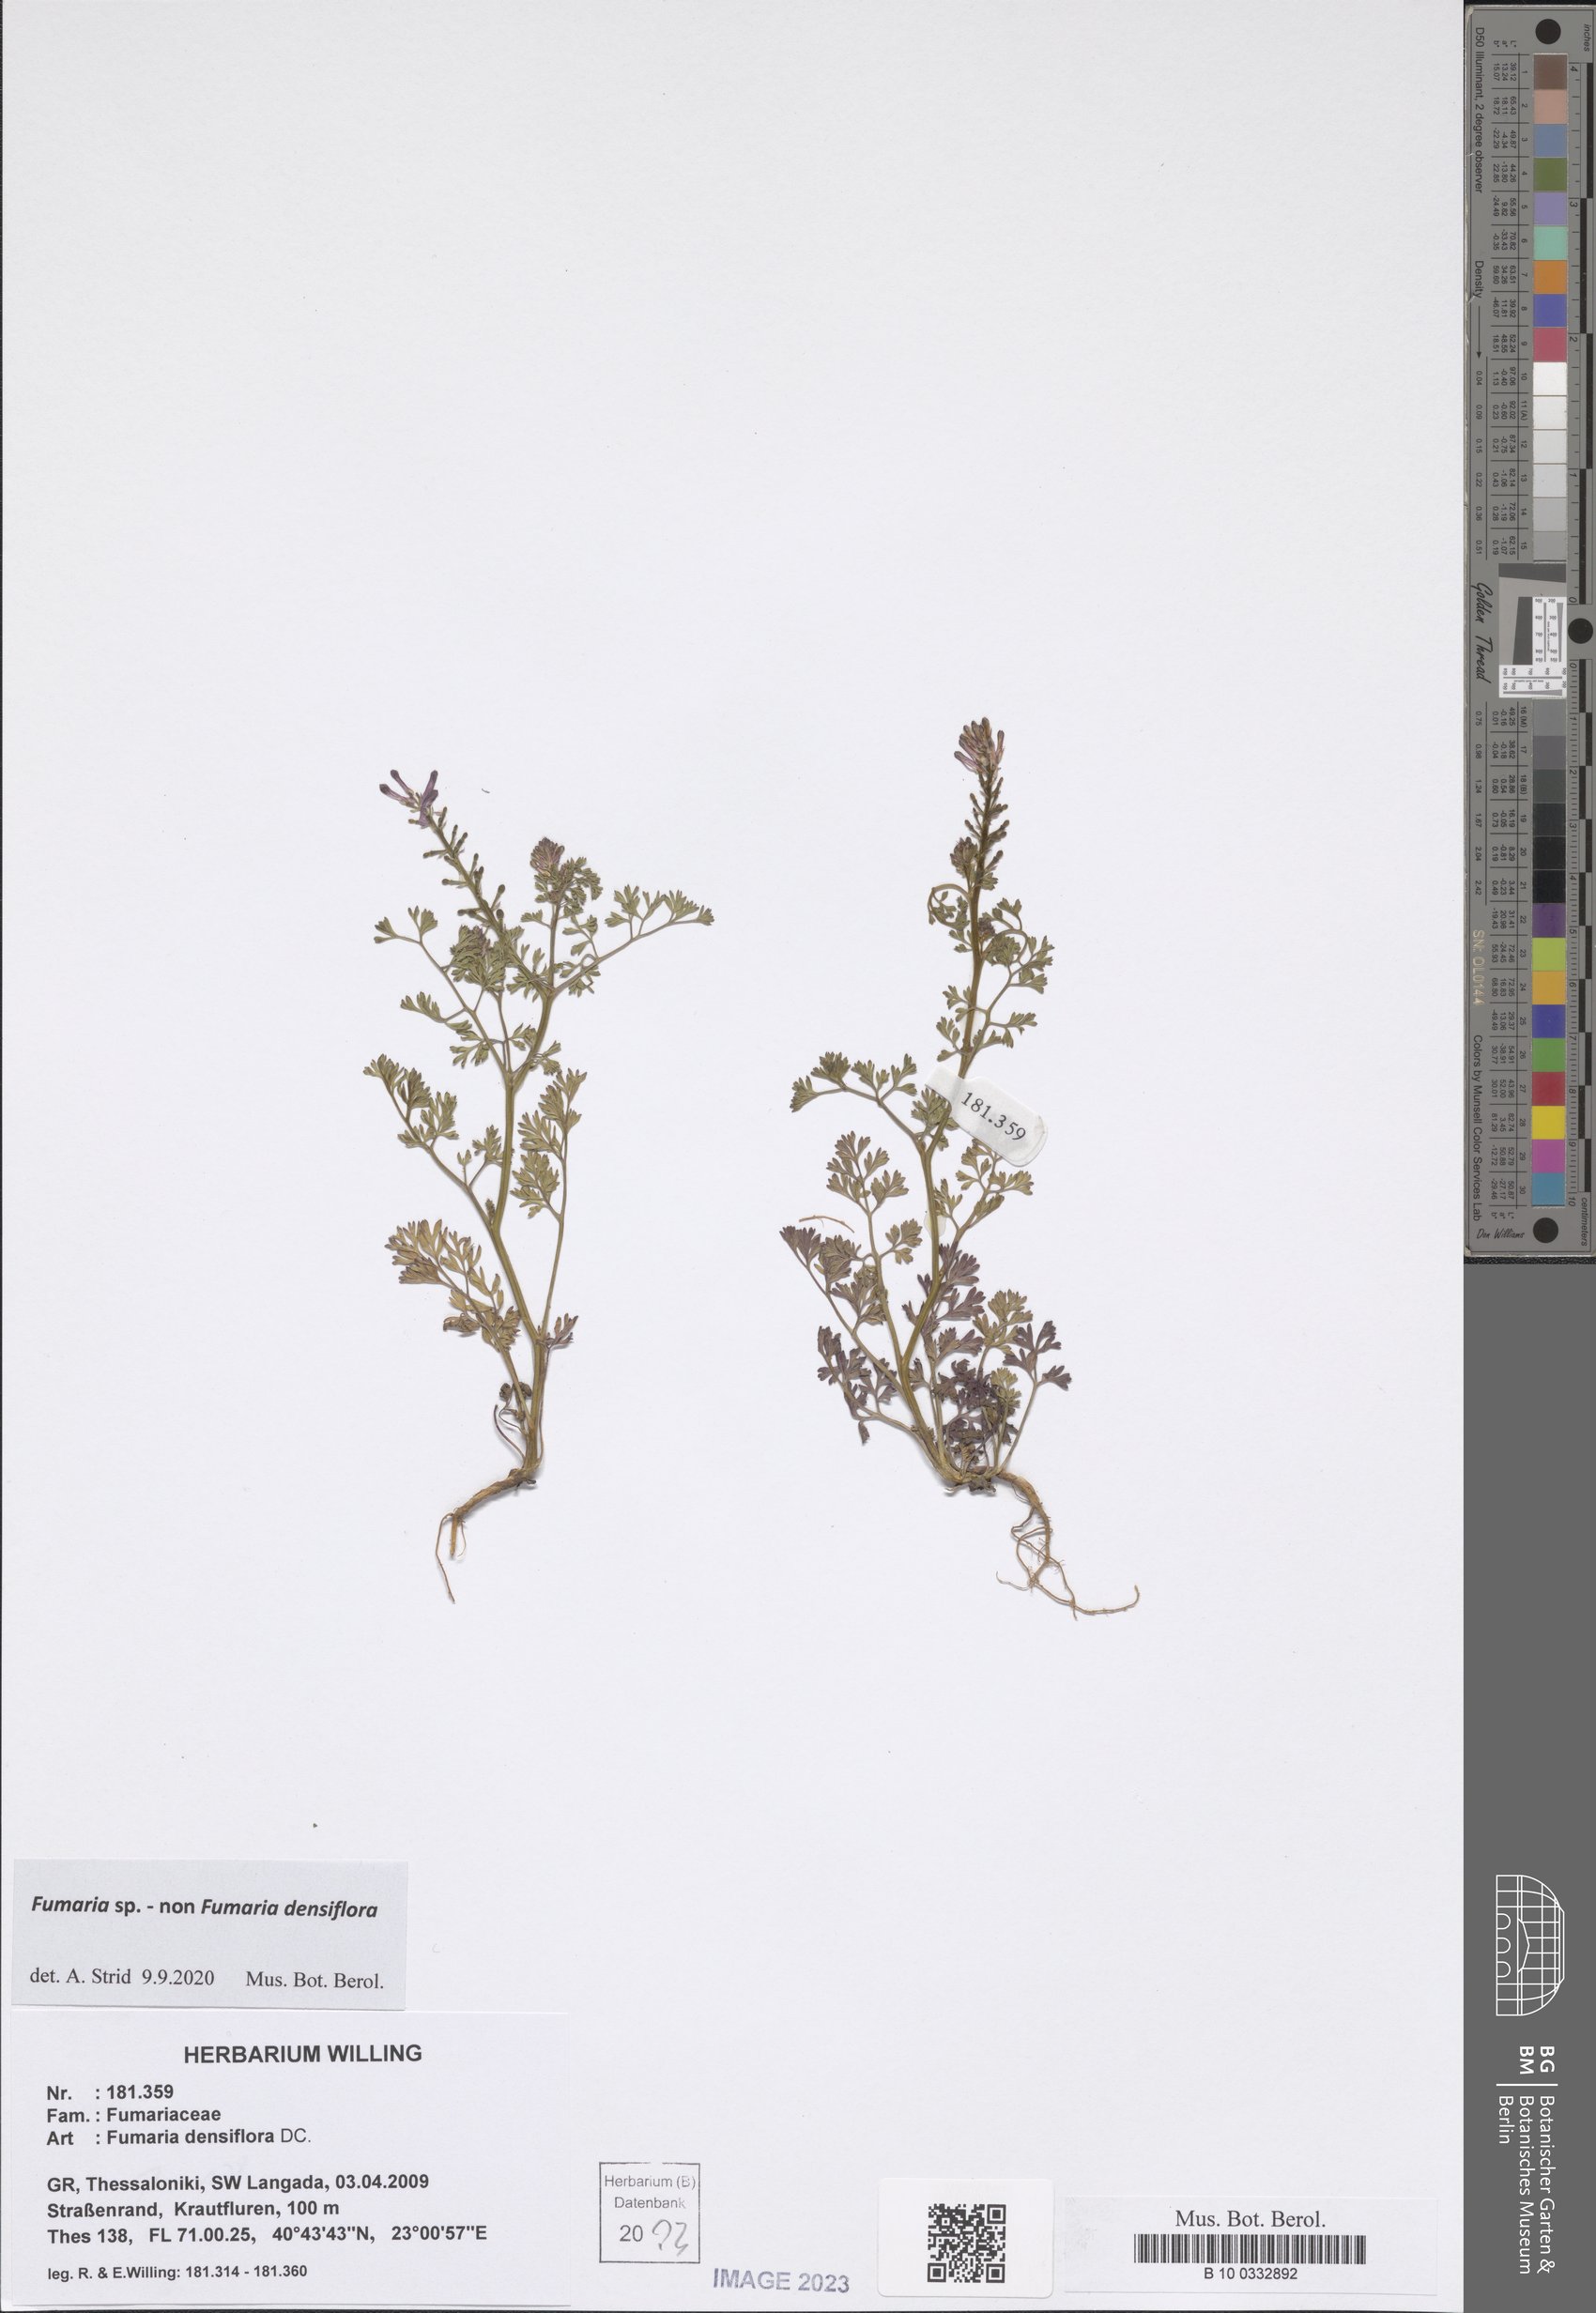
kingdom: Plantae
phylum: Tracheophyta
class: Magnoliopsida
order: Ranunculales
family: Papaveraceae
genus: Fumaria
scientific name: Fumaria
